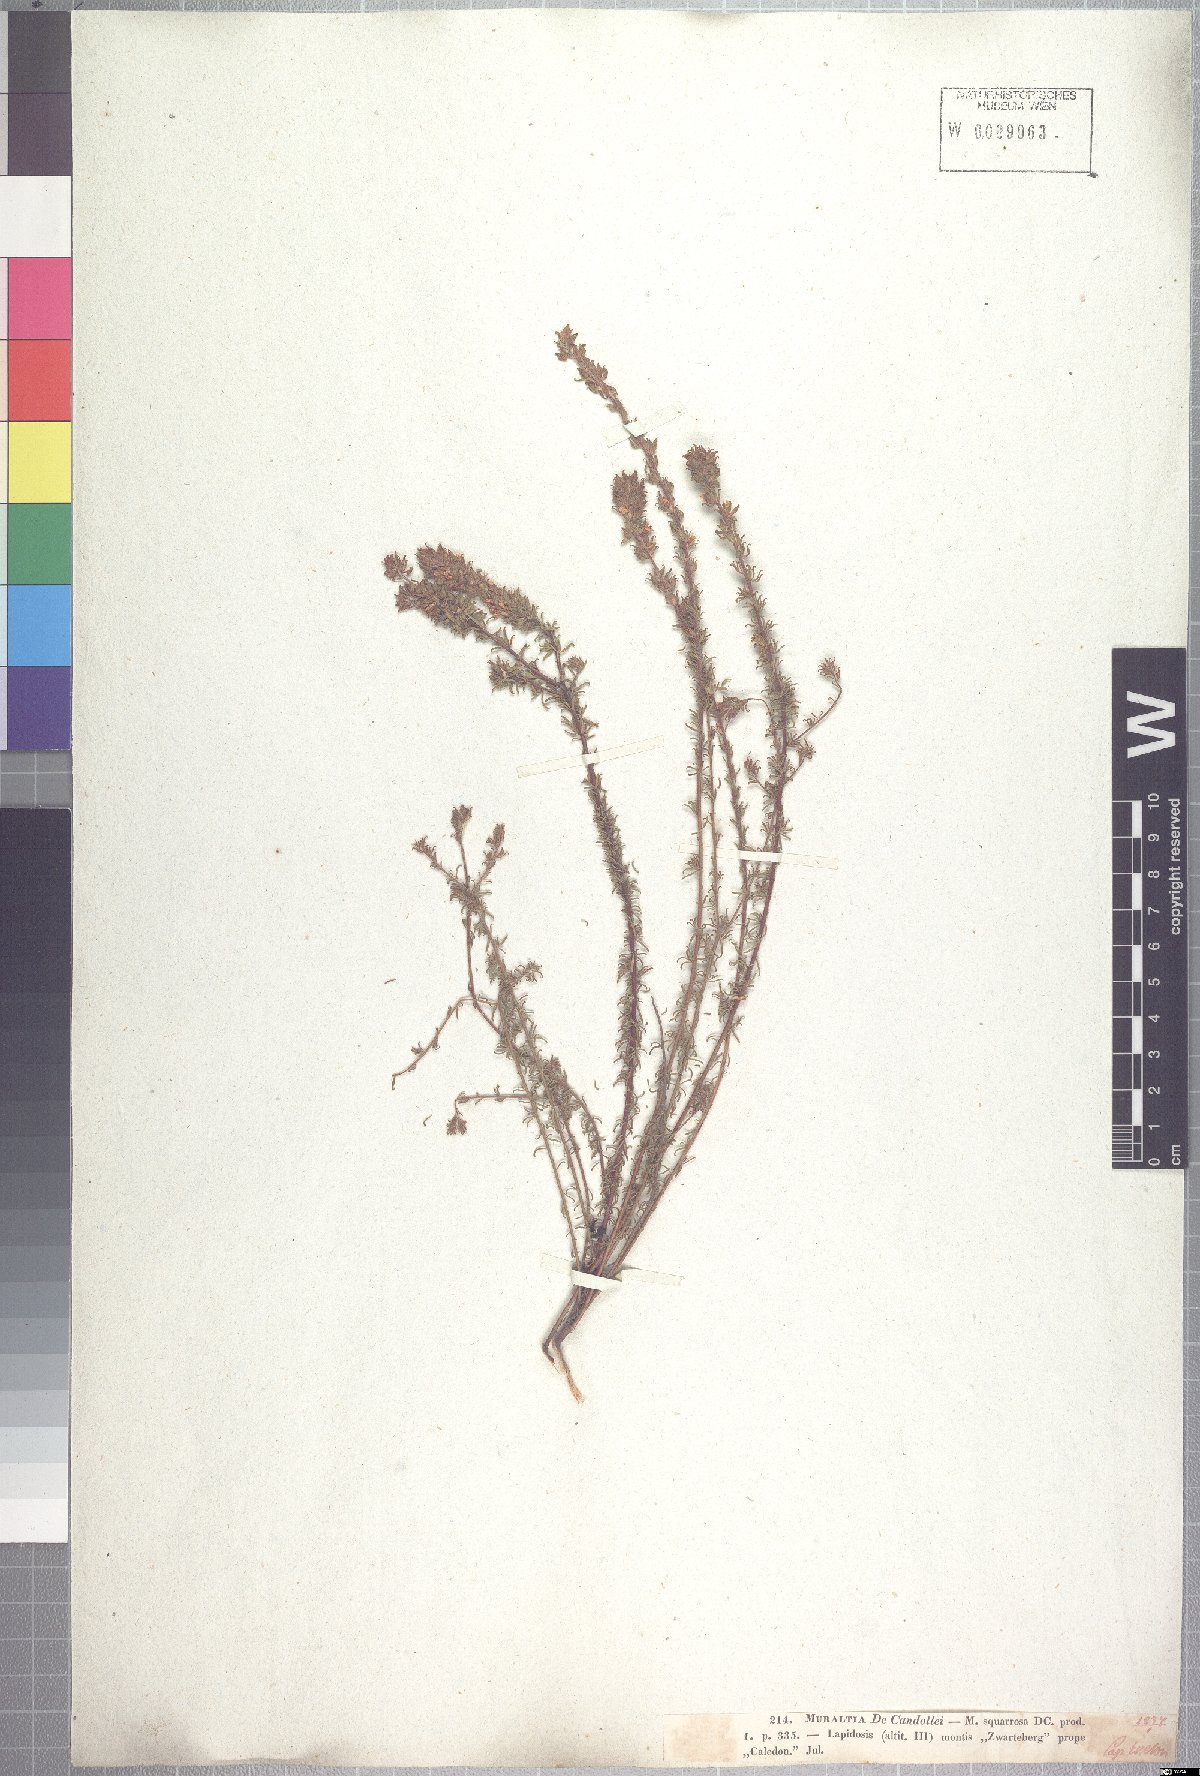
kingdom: Plantae
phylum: Tracheophyta
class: Magnoliopsida
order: Fabales
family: Polygalaceae
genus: Muraltia
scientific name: Muraltia alopecuroides
